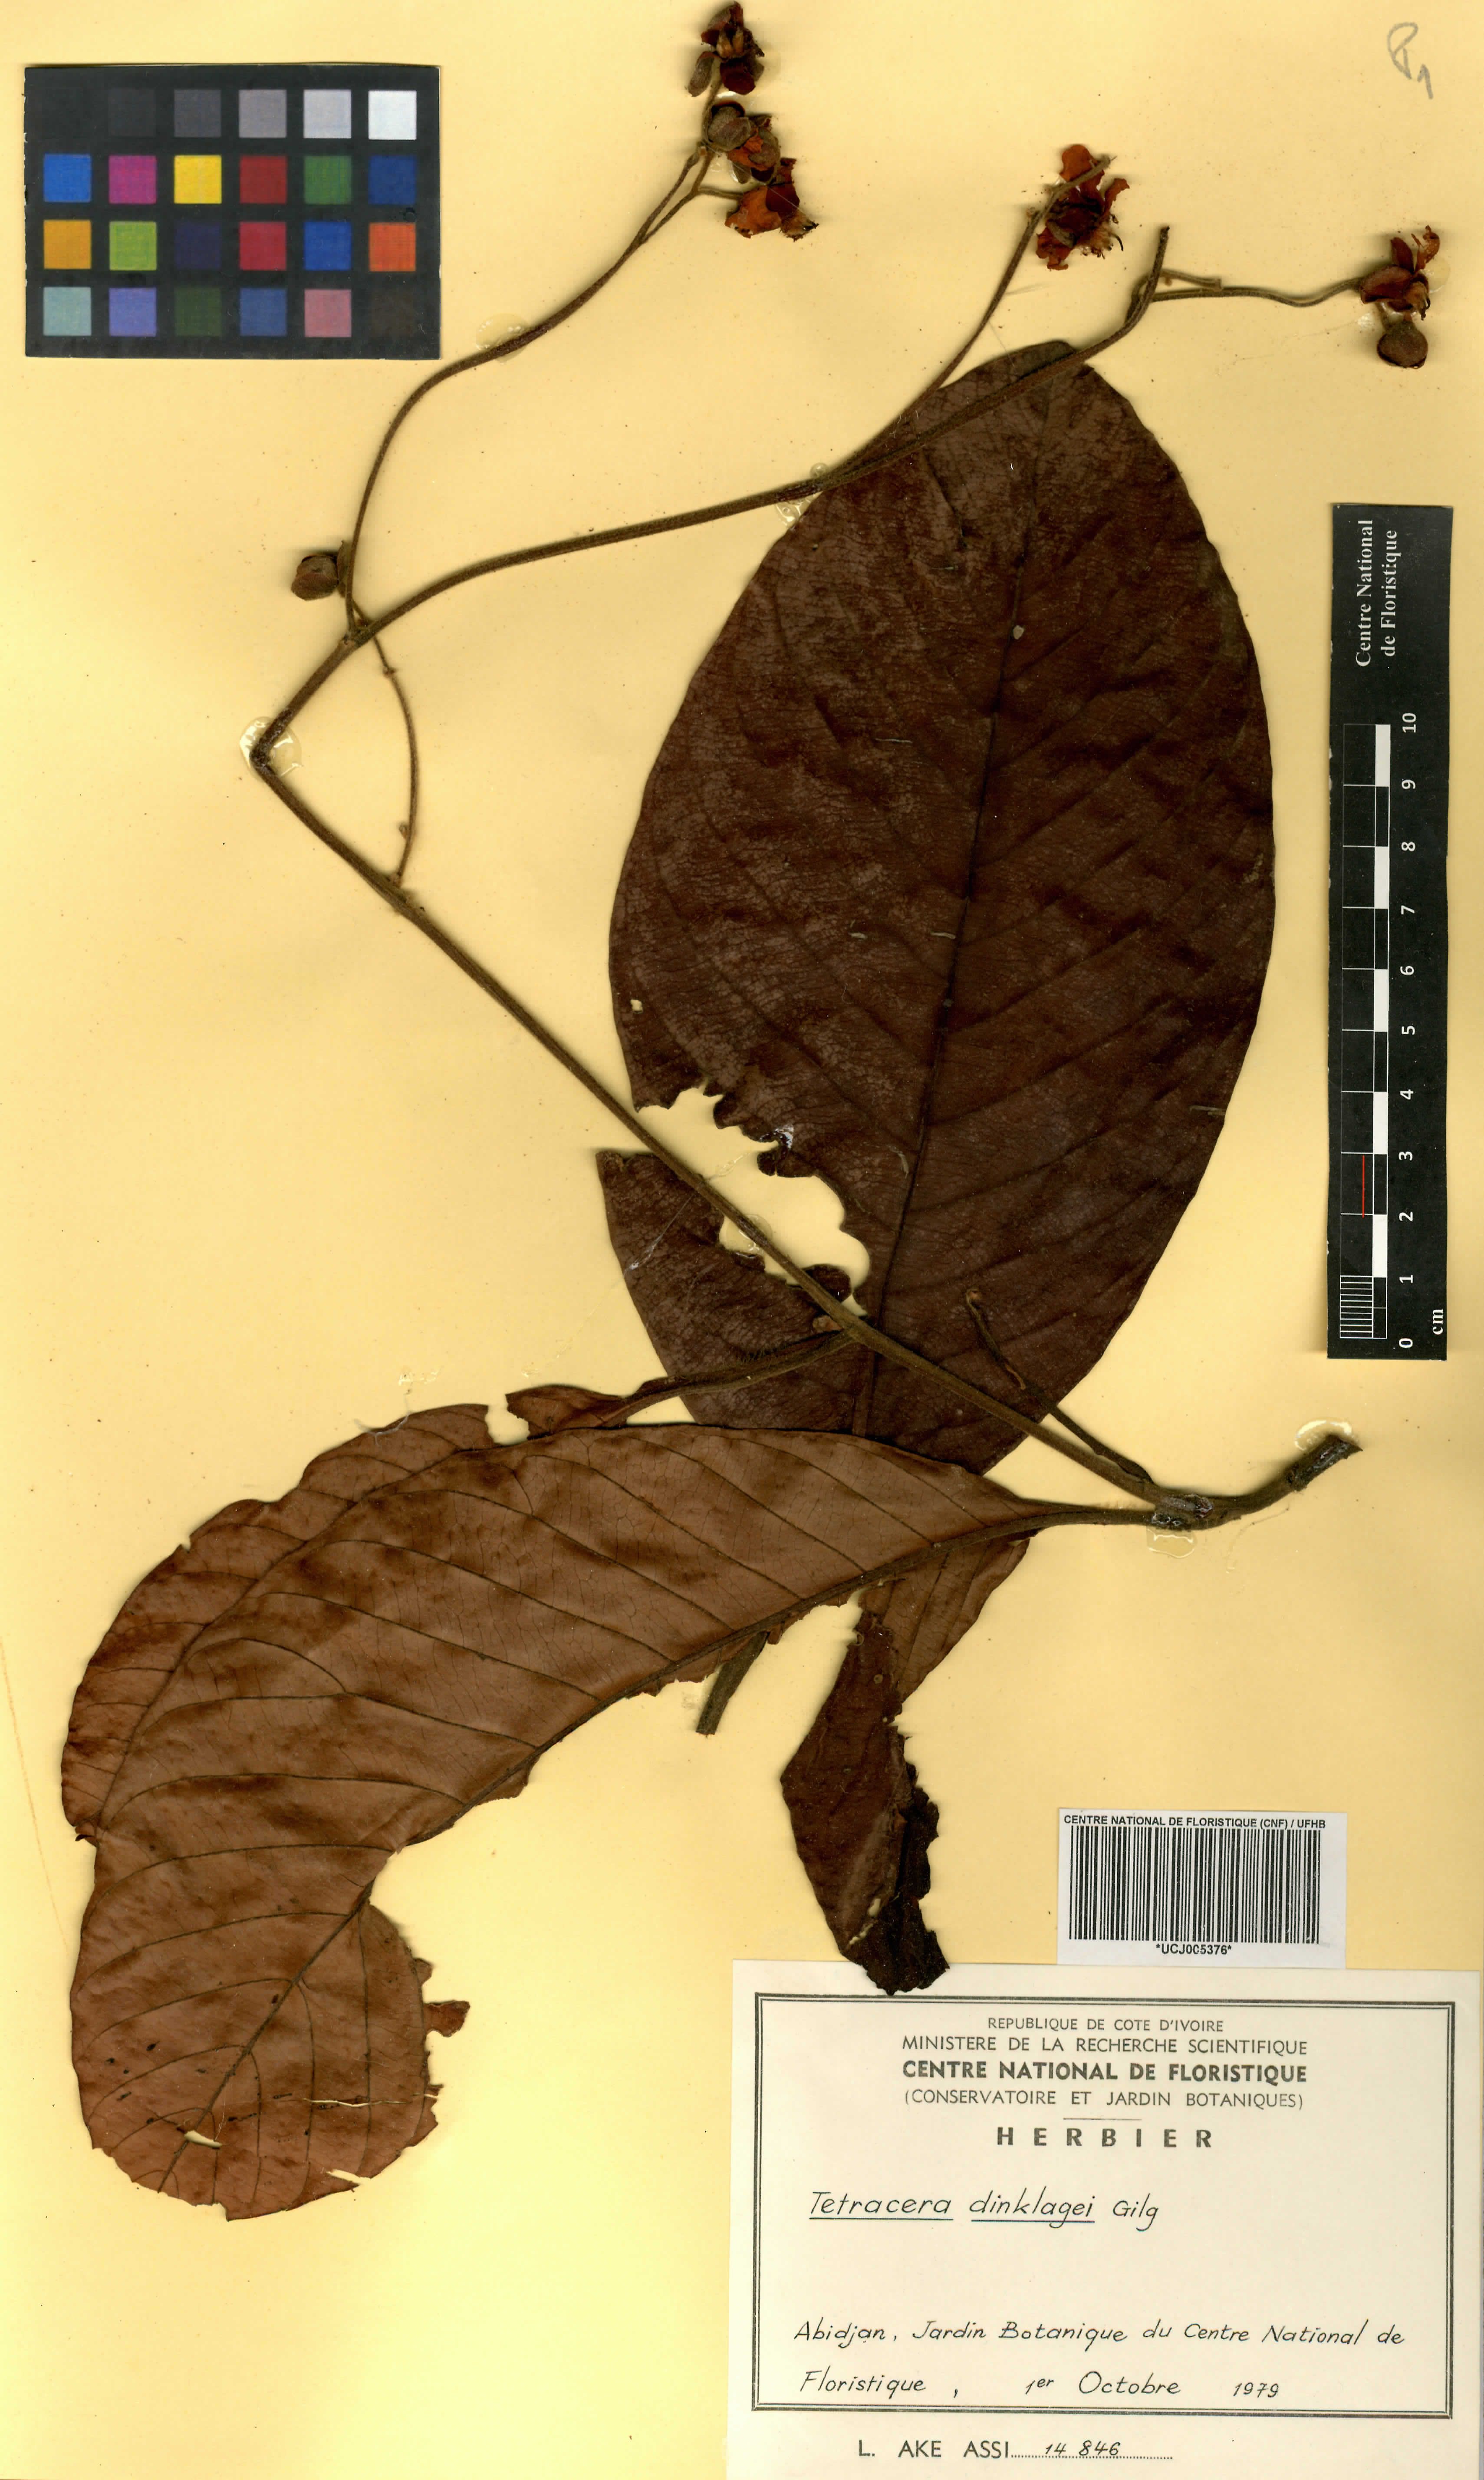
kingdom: Plantae
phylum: Tracheophyta
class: Magnoliopsida
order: Dilleniales
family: Dilleniaceae
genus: Tetracera
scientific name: Tetracera alnifolia
